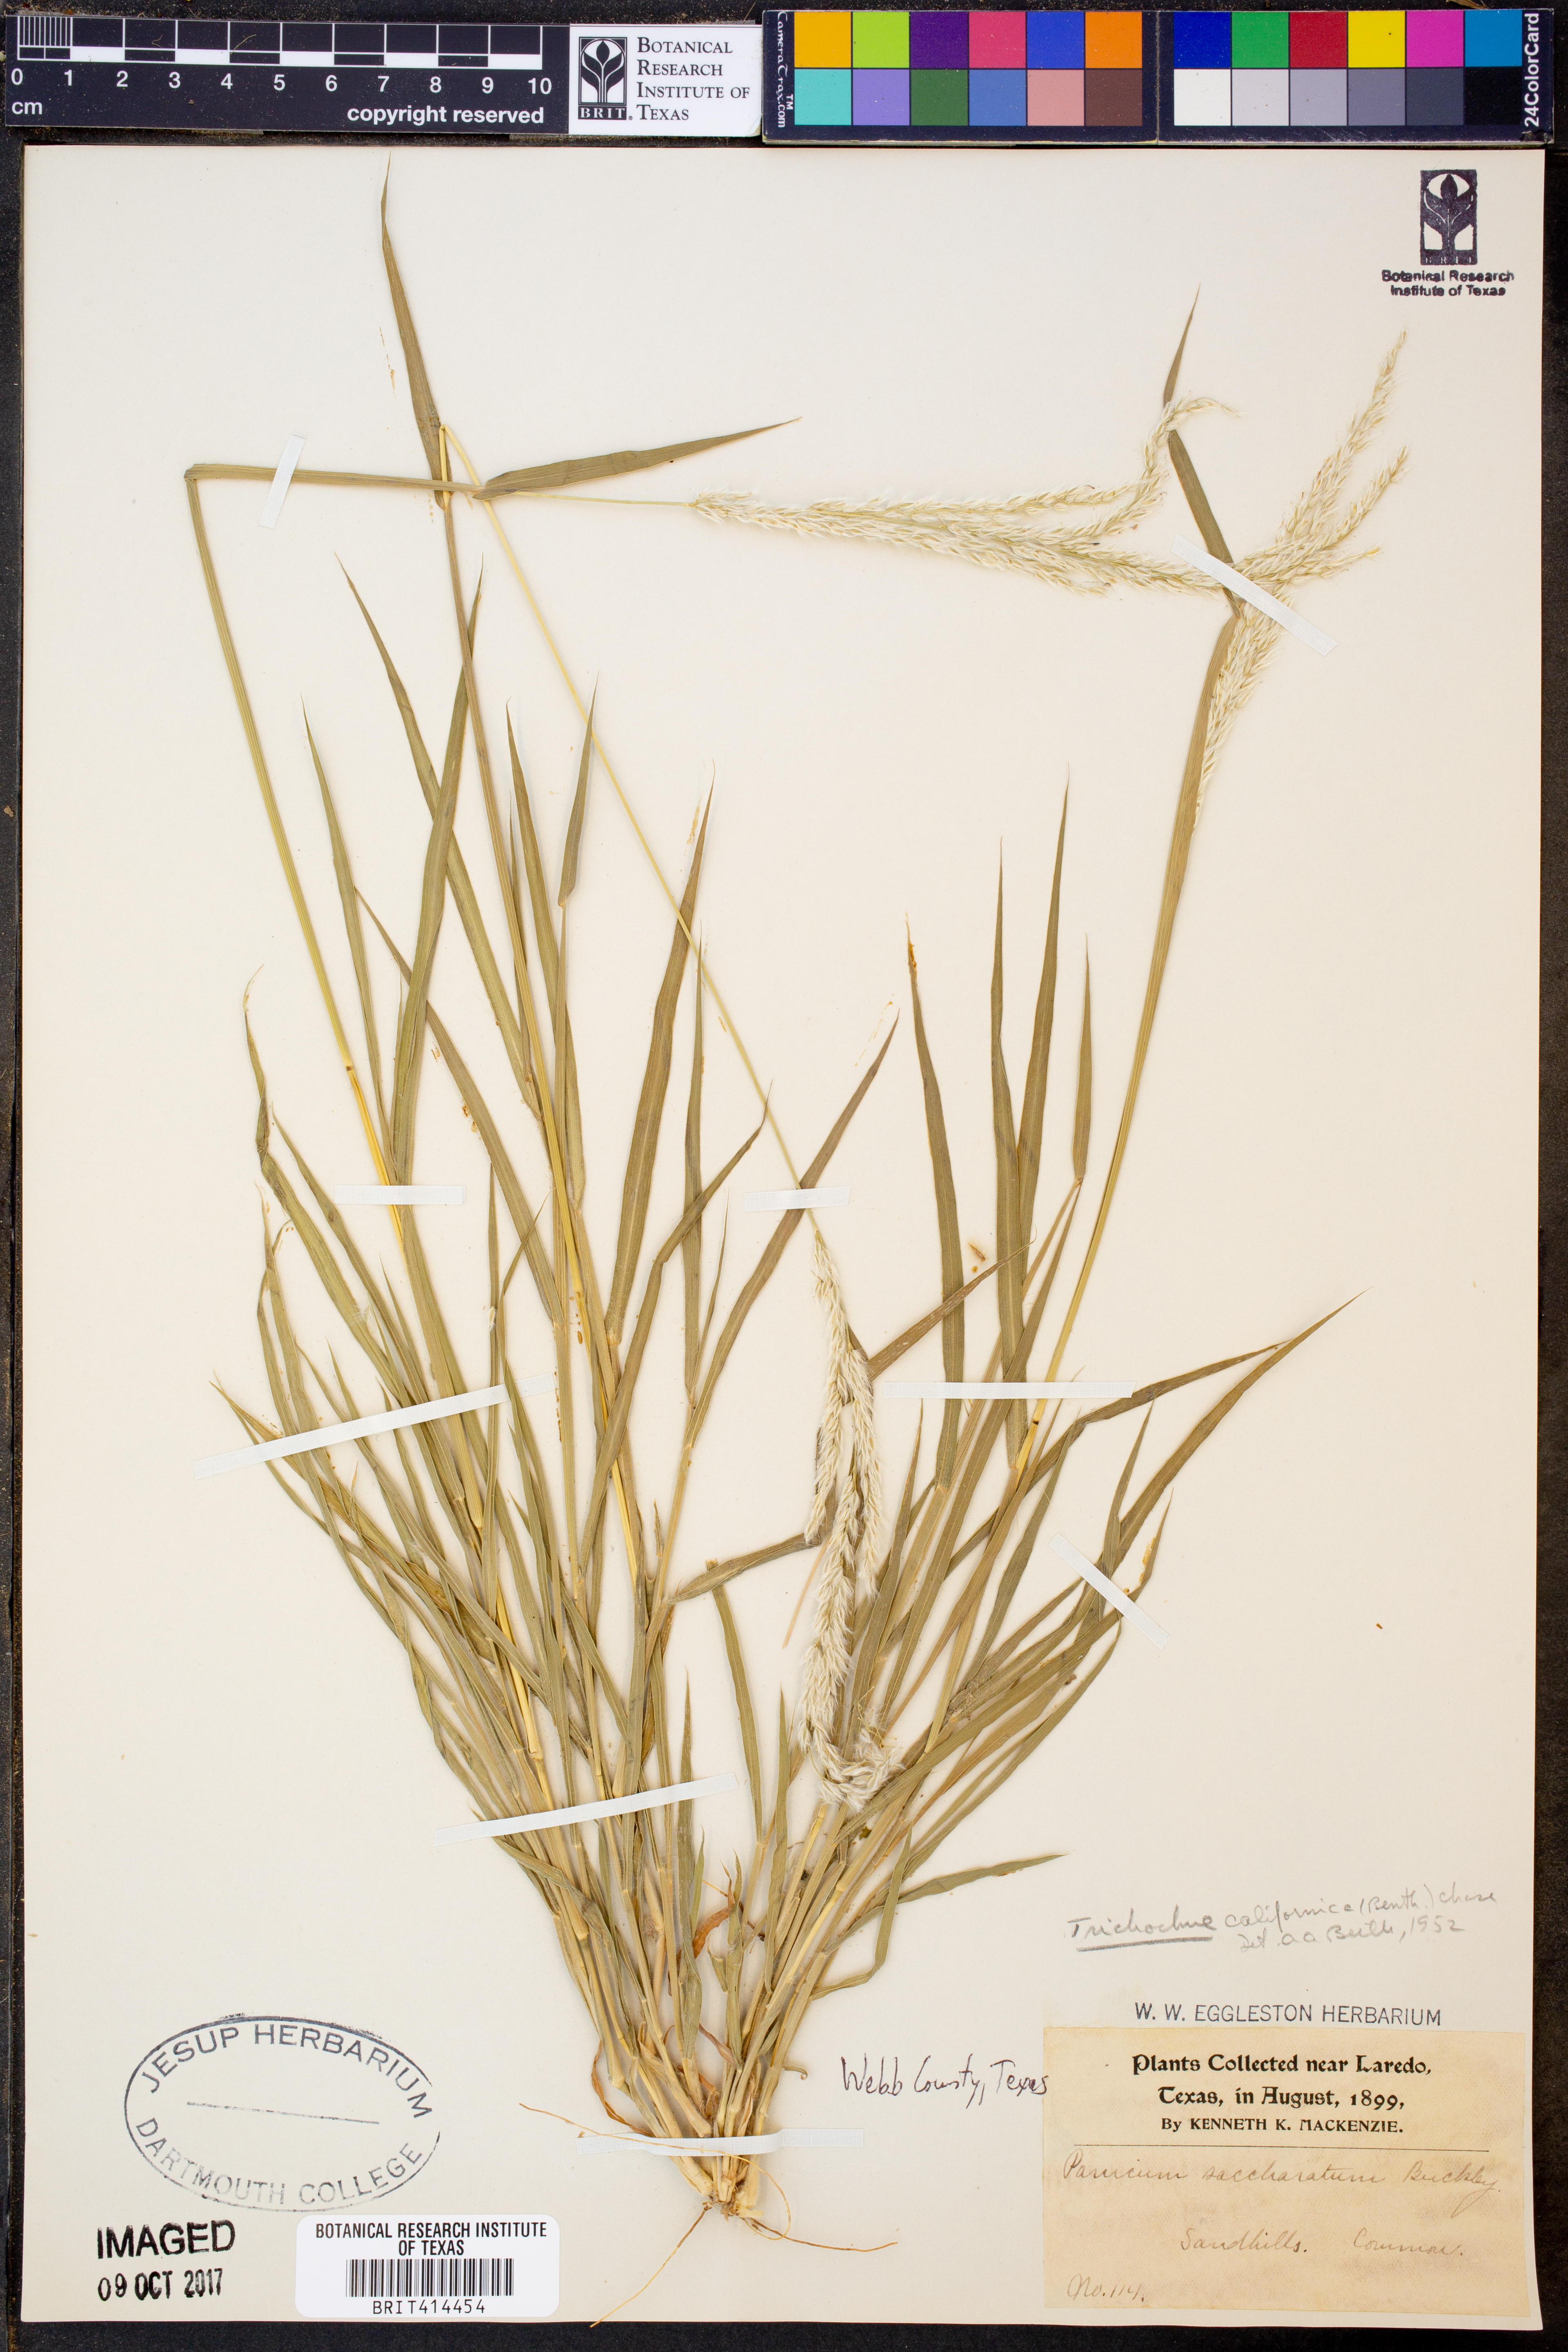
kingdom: Plantae
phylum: Tracheophyta
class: Liliopsida
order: Poales
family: Poaceae
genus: Digitaria
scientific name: Digitaria californica
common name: Arizona cottontop
